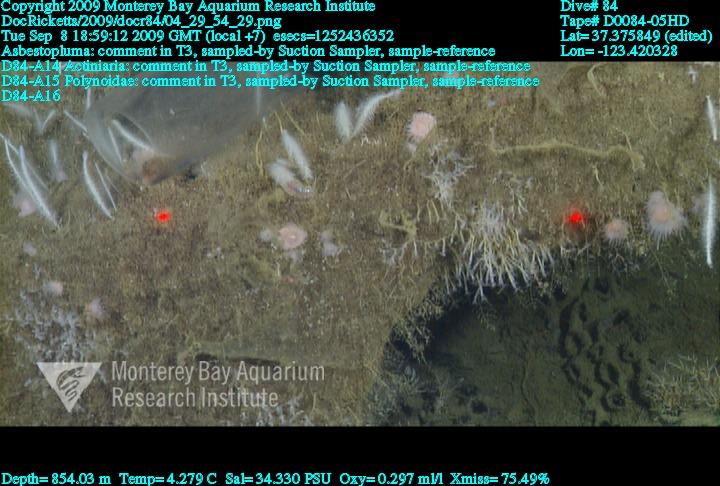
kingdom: Animalia
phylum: Porifera
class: Demospongiae
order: Poecilosclerida
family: Cladorhizidae
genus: Asbestopluma
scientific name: Asbestopluma
